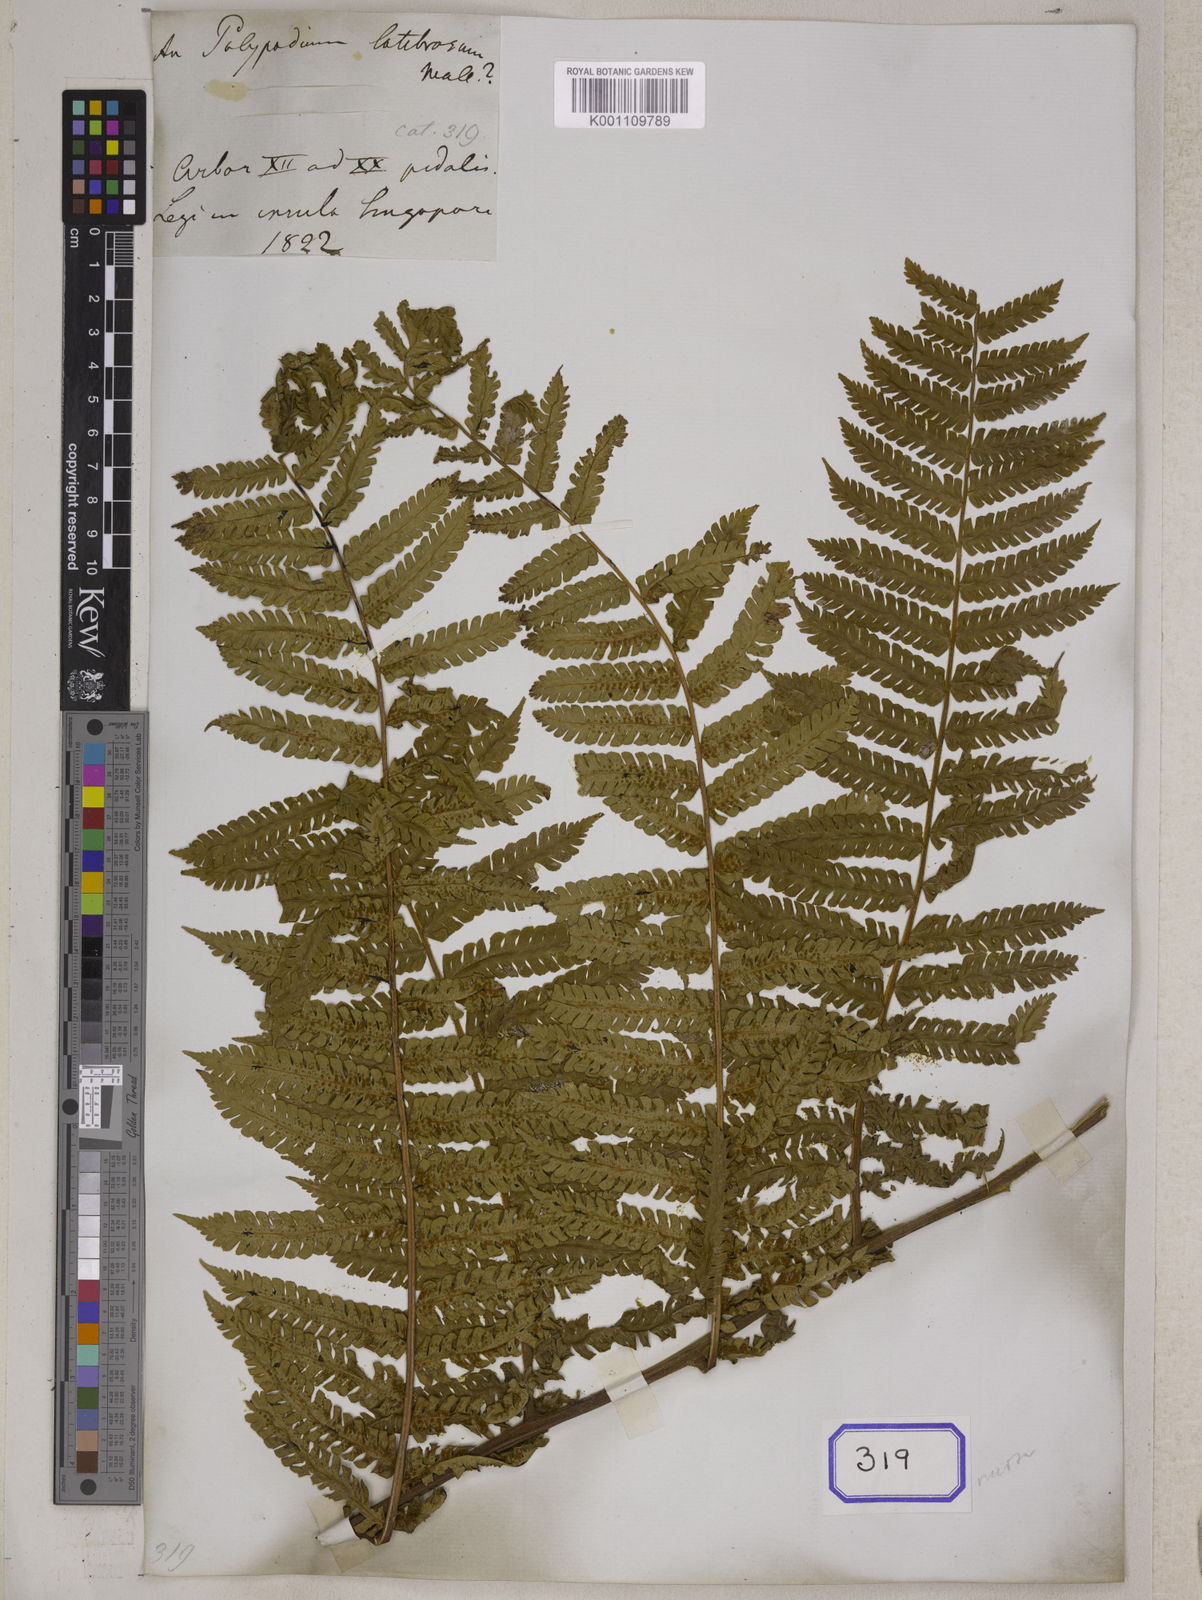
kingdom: Plantae
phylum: Tracheophyta
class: Polypodiopsida
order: Cyatheales
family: Cyatheaceae
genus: Sphaeropteris
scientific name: Sphaeropteris squamulata
